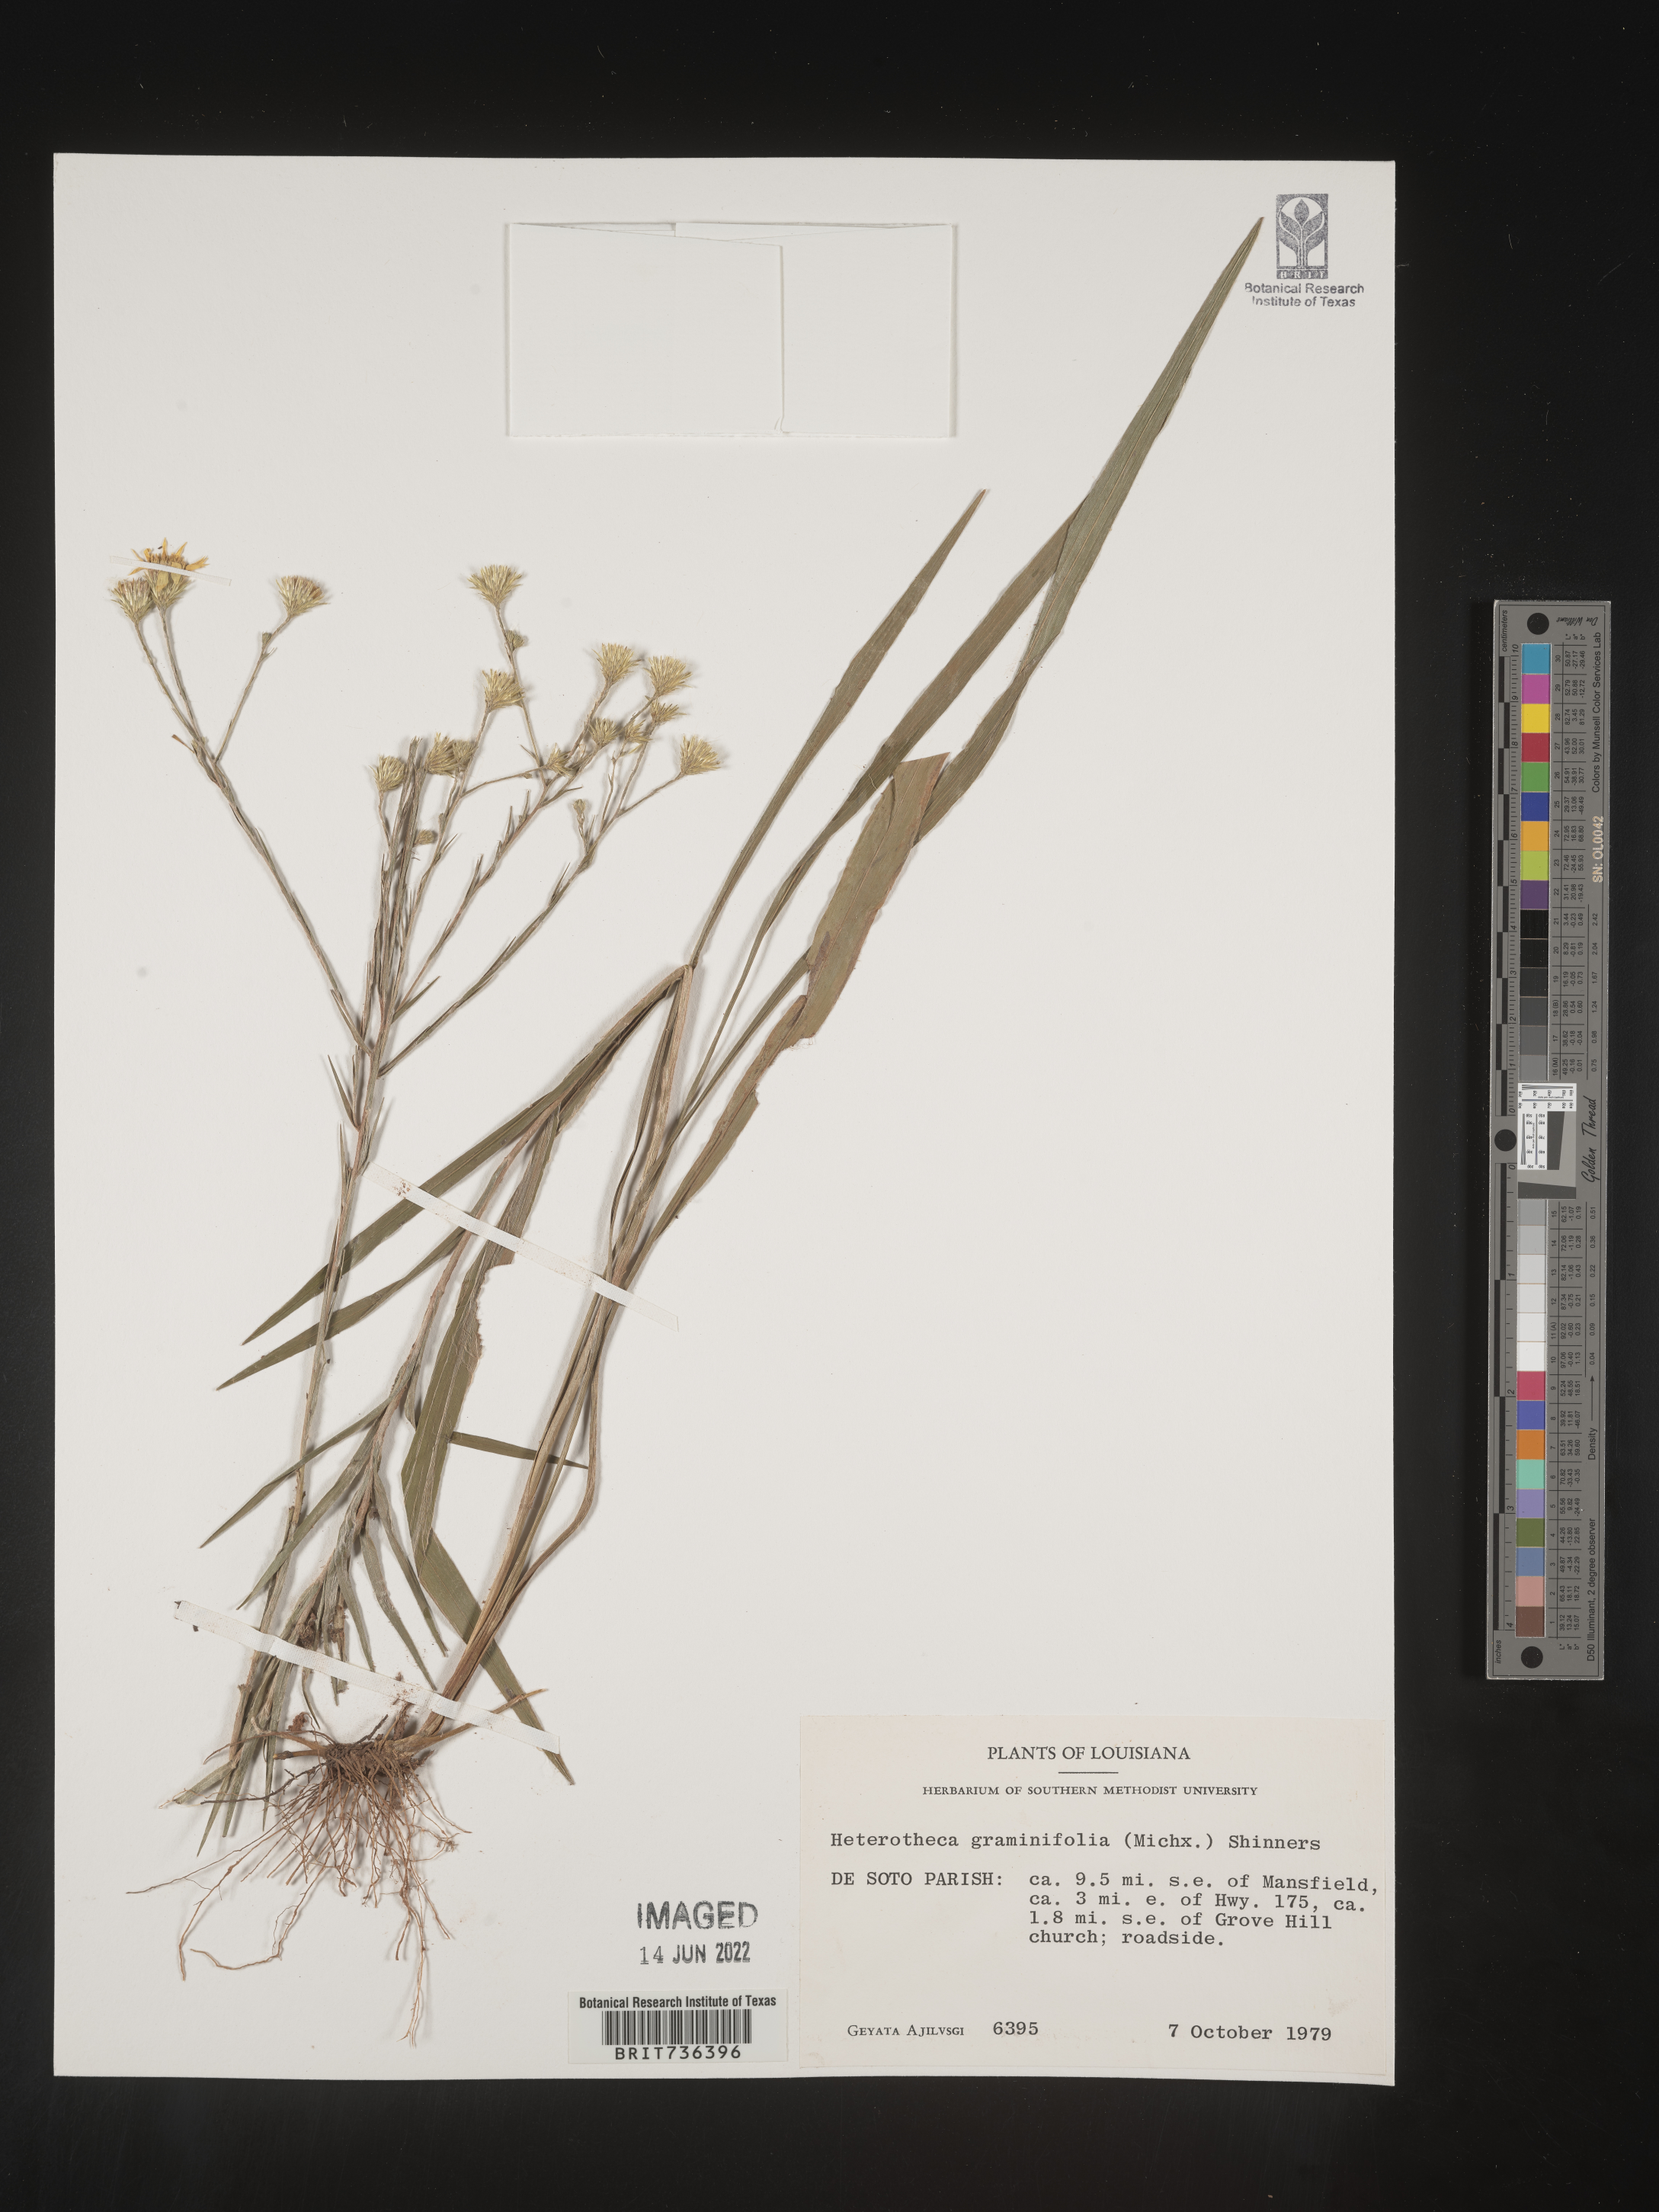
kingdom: Plantae
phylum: Tracheophyta
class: Magnoliopsida
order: Asterales
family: Asteraceae
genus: Pityopsis
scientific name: Pityopsis tenuifolia
